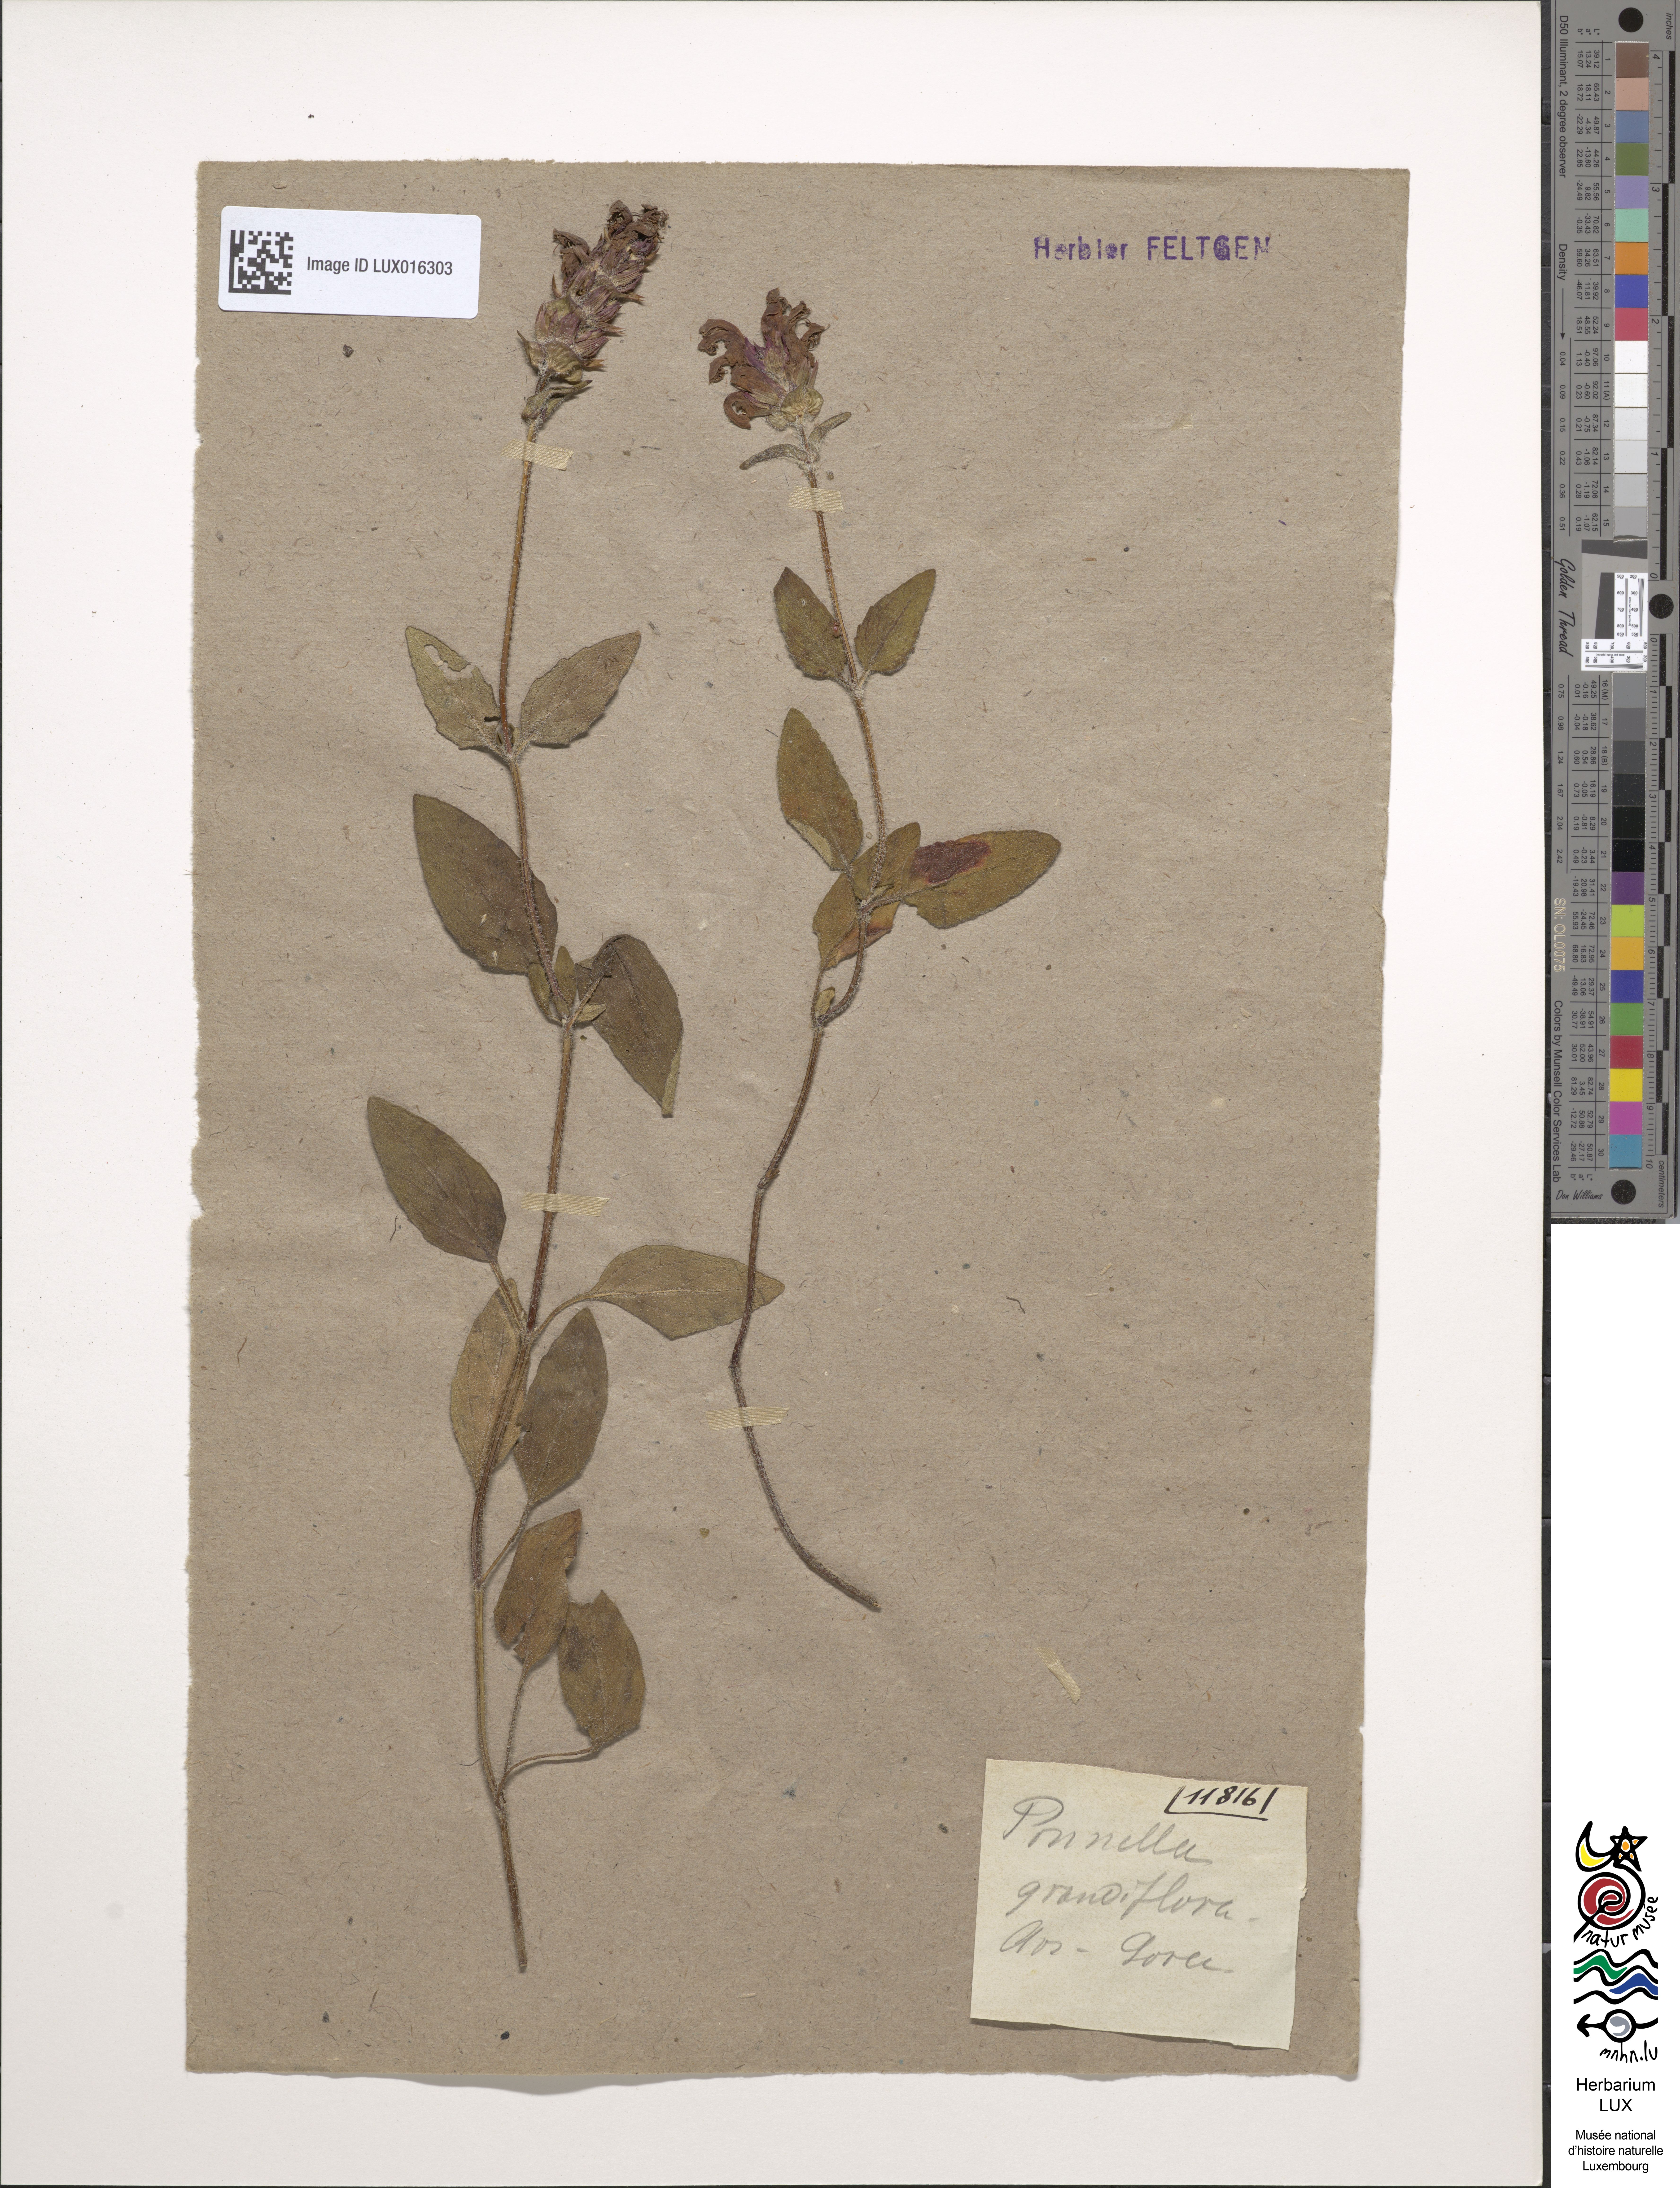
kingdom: Plantae
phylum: Tracheophyta
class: Magnoliopsida
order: Lamiales
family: Lamiaceae
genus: Prunella
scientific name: Prunella grandiflora
